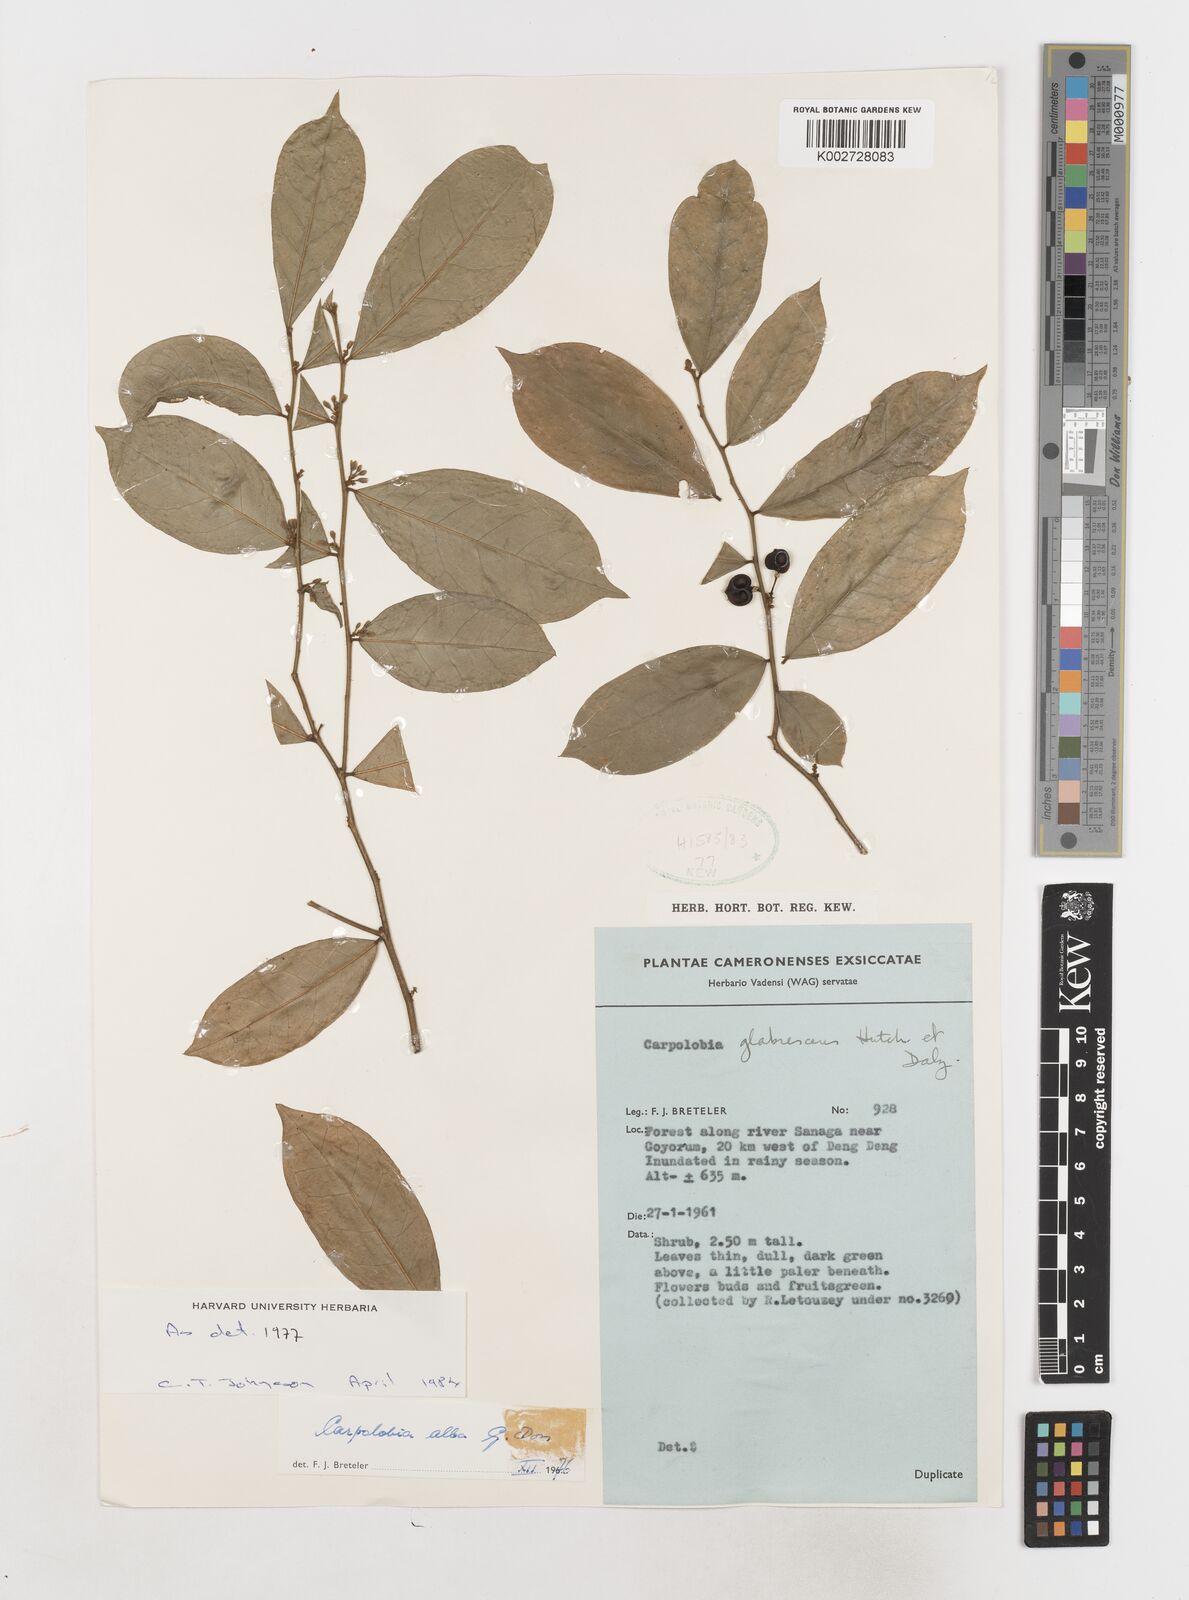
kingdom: Plantae
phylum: Tracheophyta
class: Magnoliopsida
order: Fabales
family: Polygalaceae
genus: Carpolobia
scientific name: Carpolobia alba
